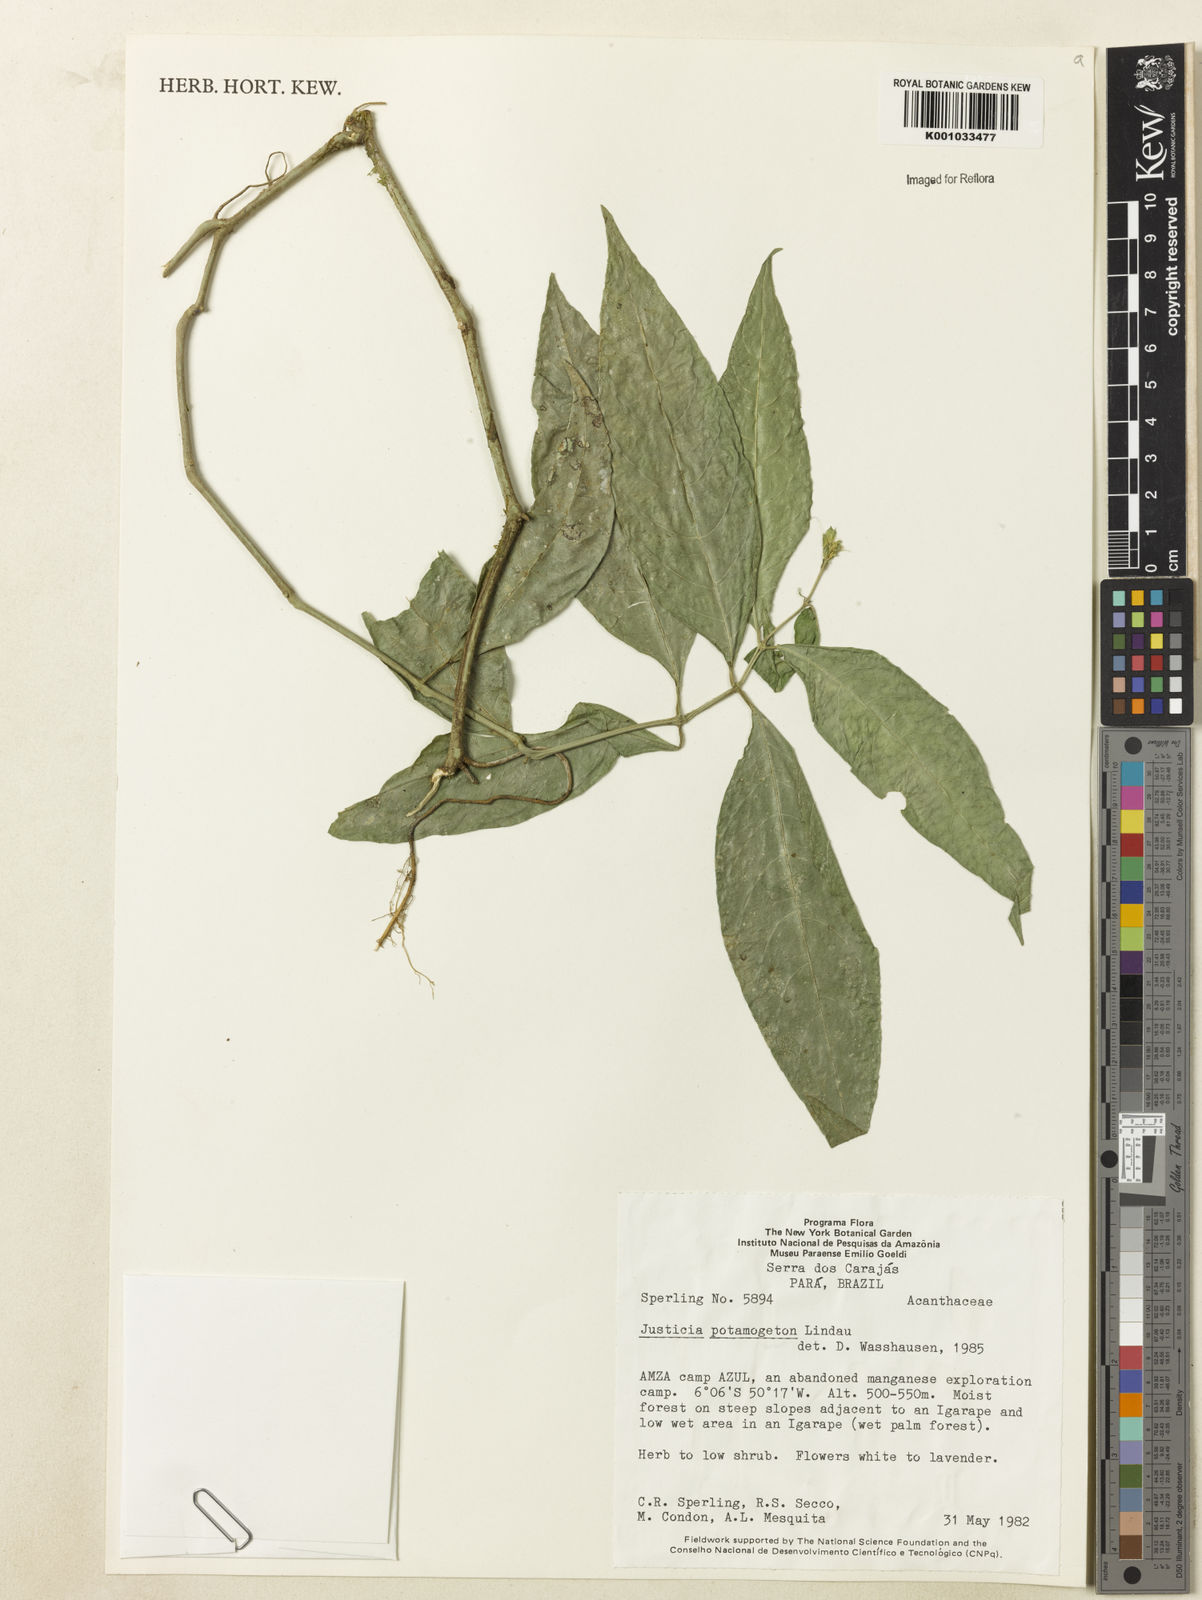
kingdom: Plantae
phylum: Tracheophyta
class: Magnoliopsida
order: Lamiales
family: Acanthaceae
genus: Justicia
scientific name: Justicia potamogeton
